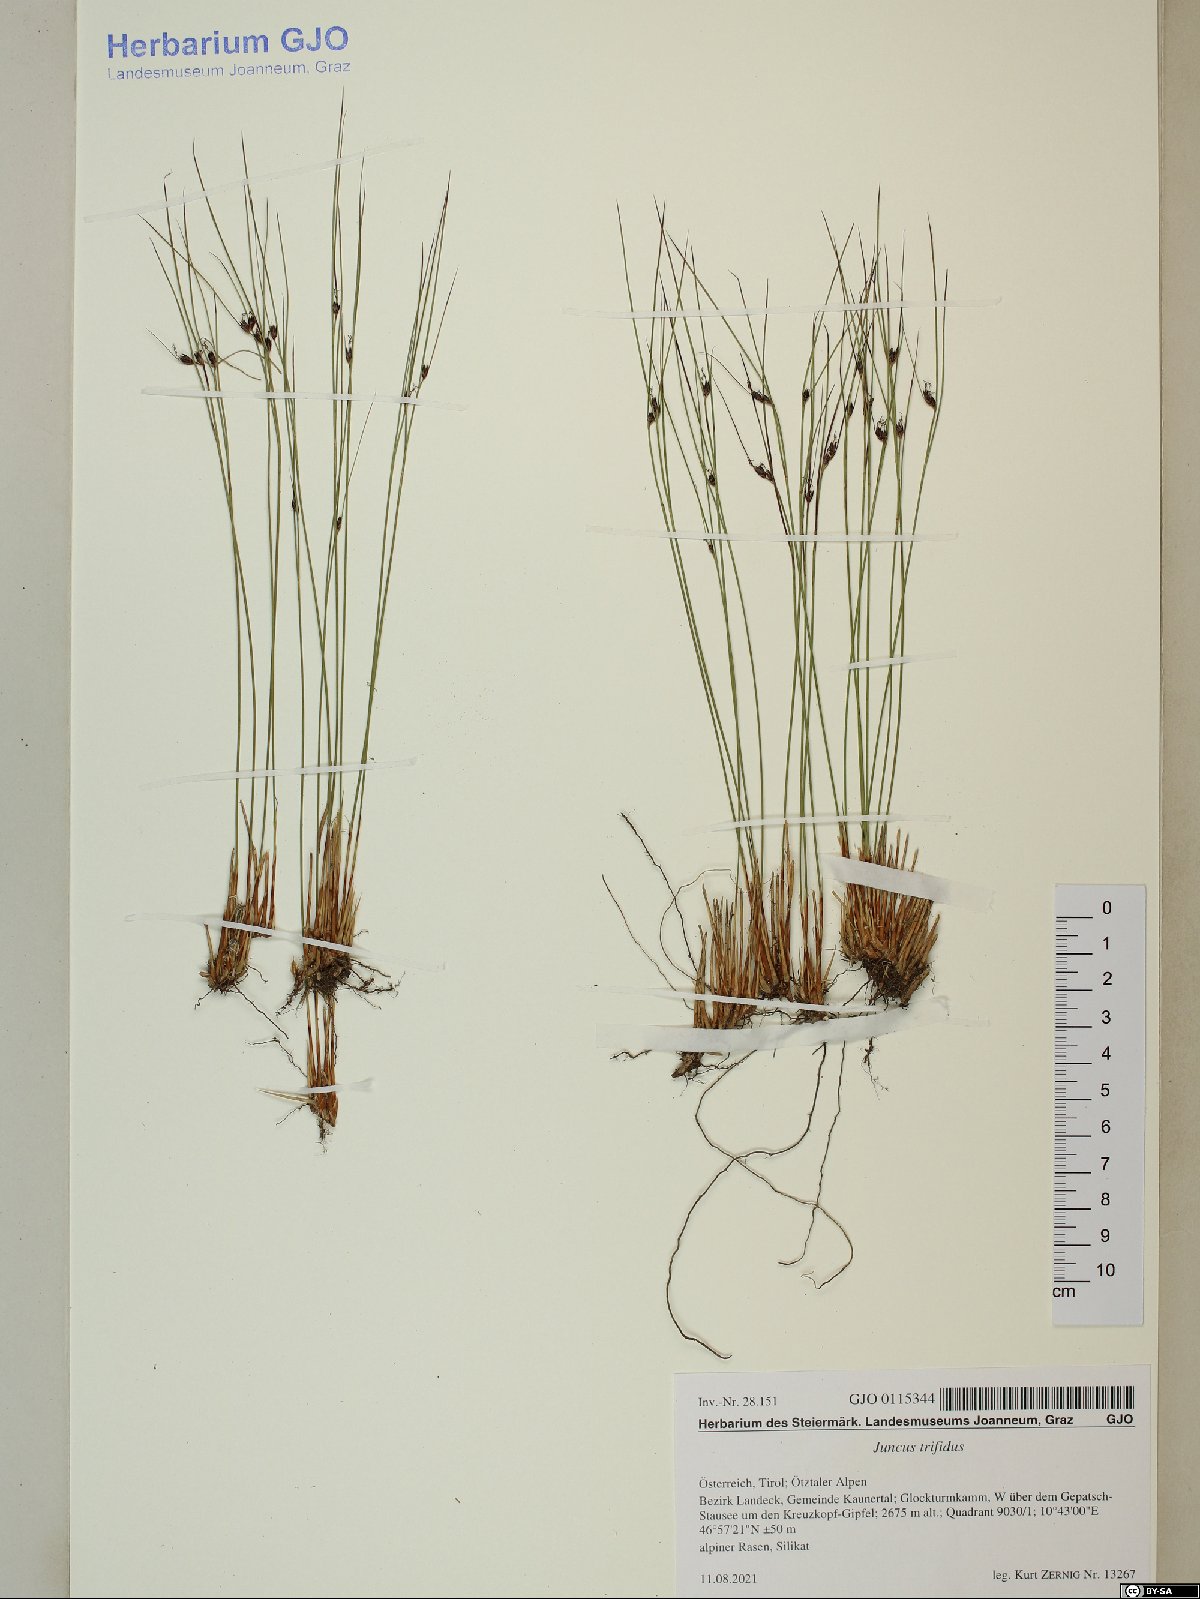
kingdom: Plantae
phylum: Tracheophyta
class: Liliopsida
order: Poales
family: Juncaceae
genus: Oreojuncus
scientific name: Oreojuncus trifidus
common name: Highland rush
